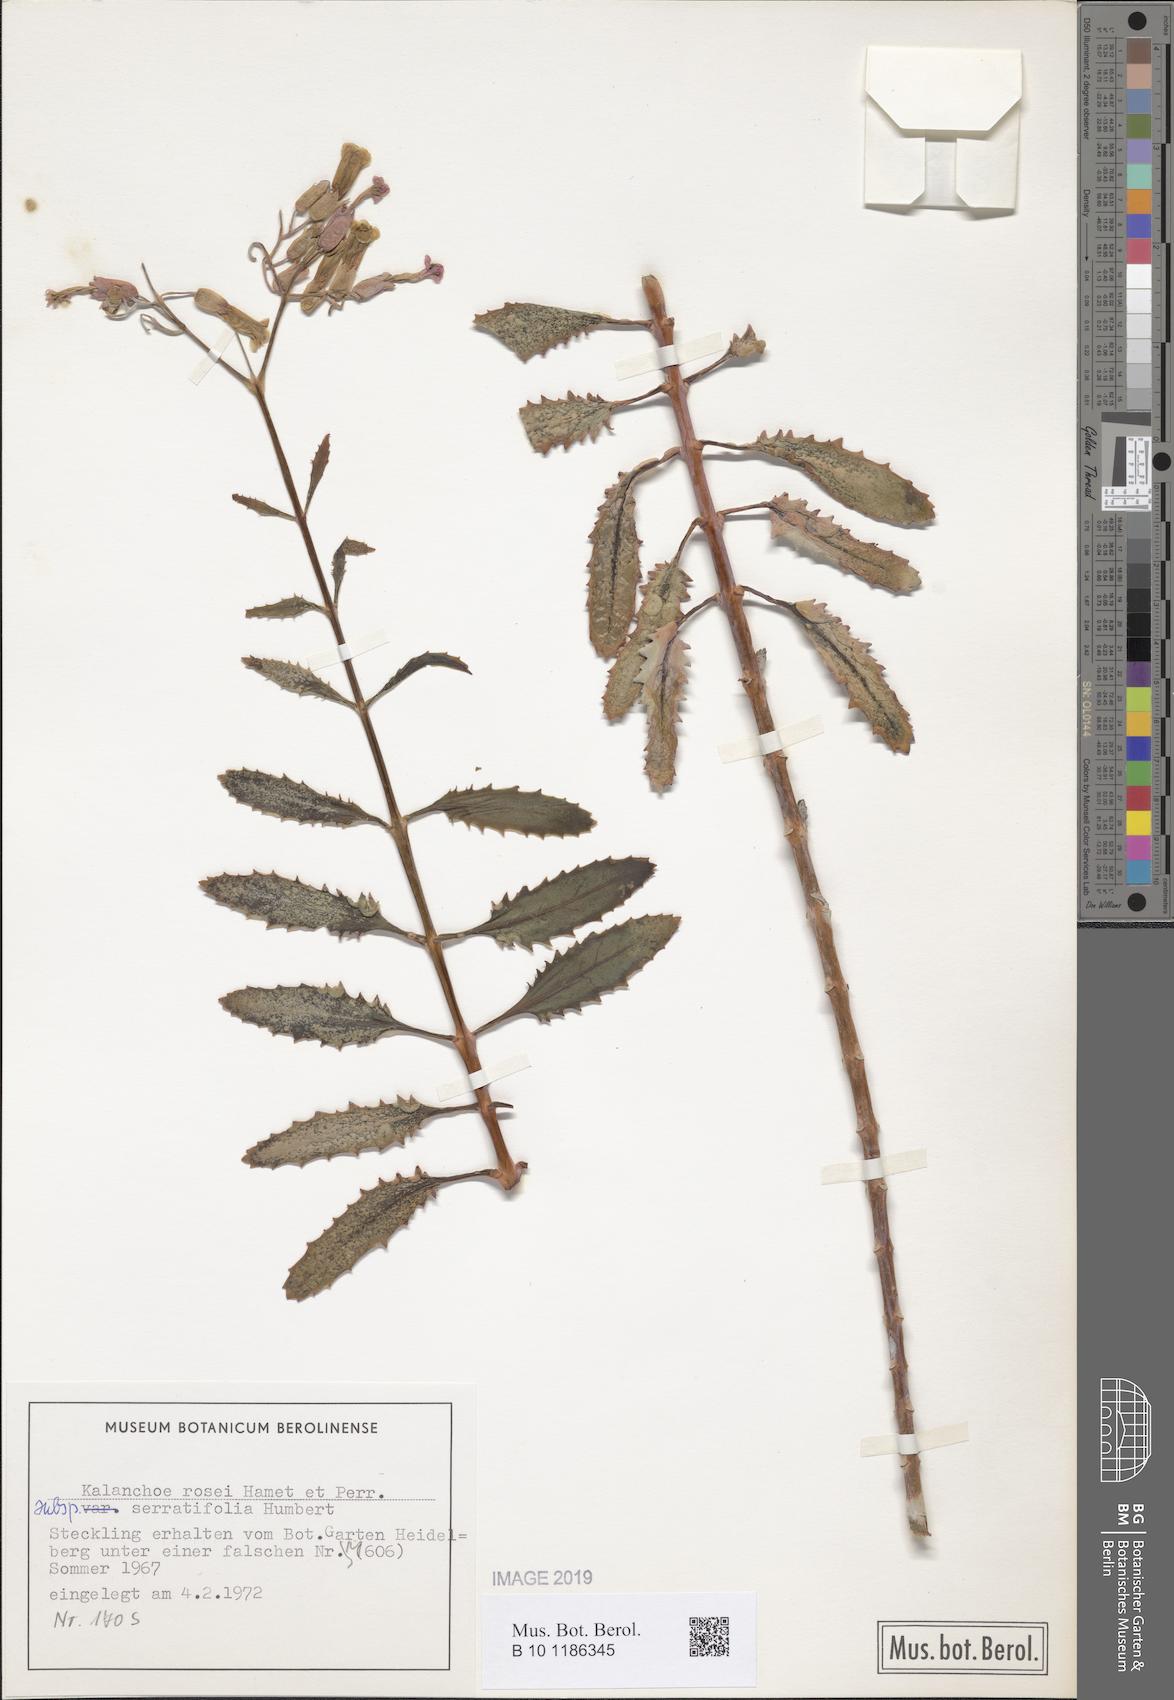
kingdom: Plantae
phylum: Tracheophyta
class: Magnoliopsida
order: Saxifragales
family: Crassulaceae
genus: Kalanchoe
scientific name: Kalanchoe rosei
